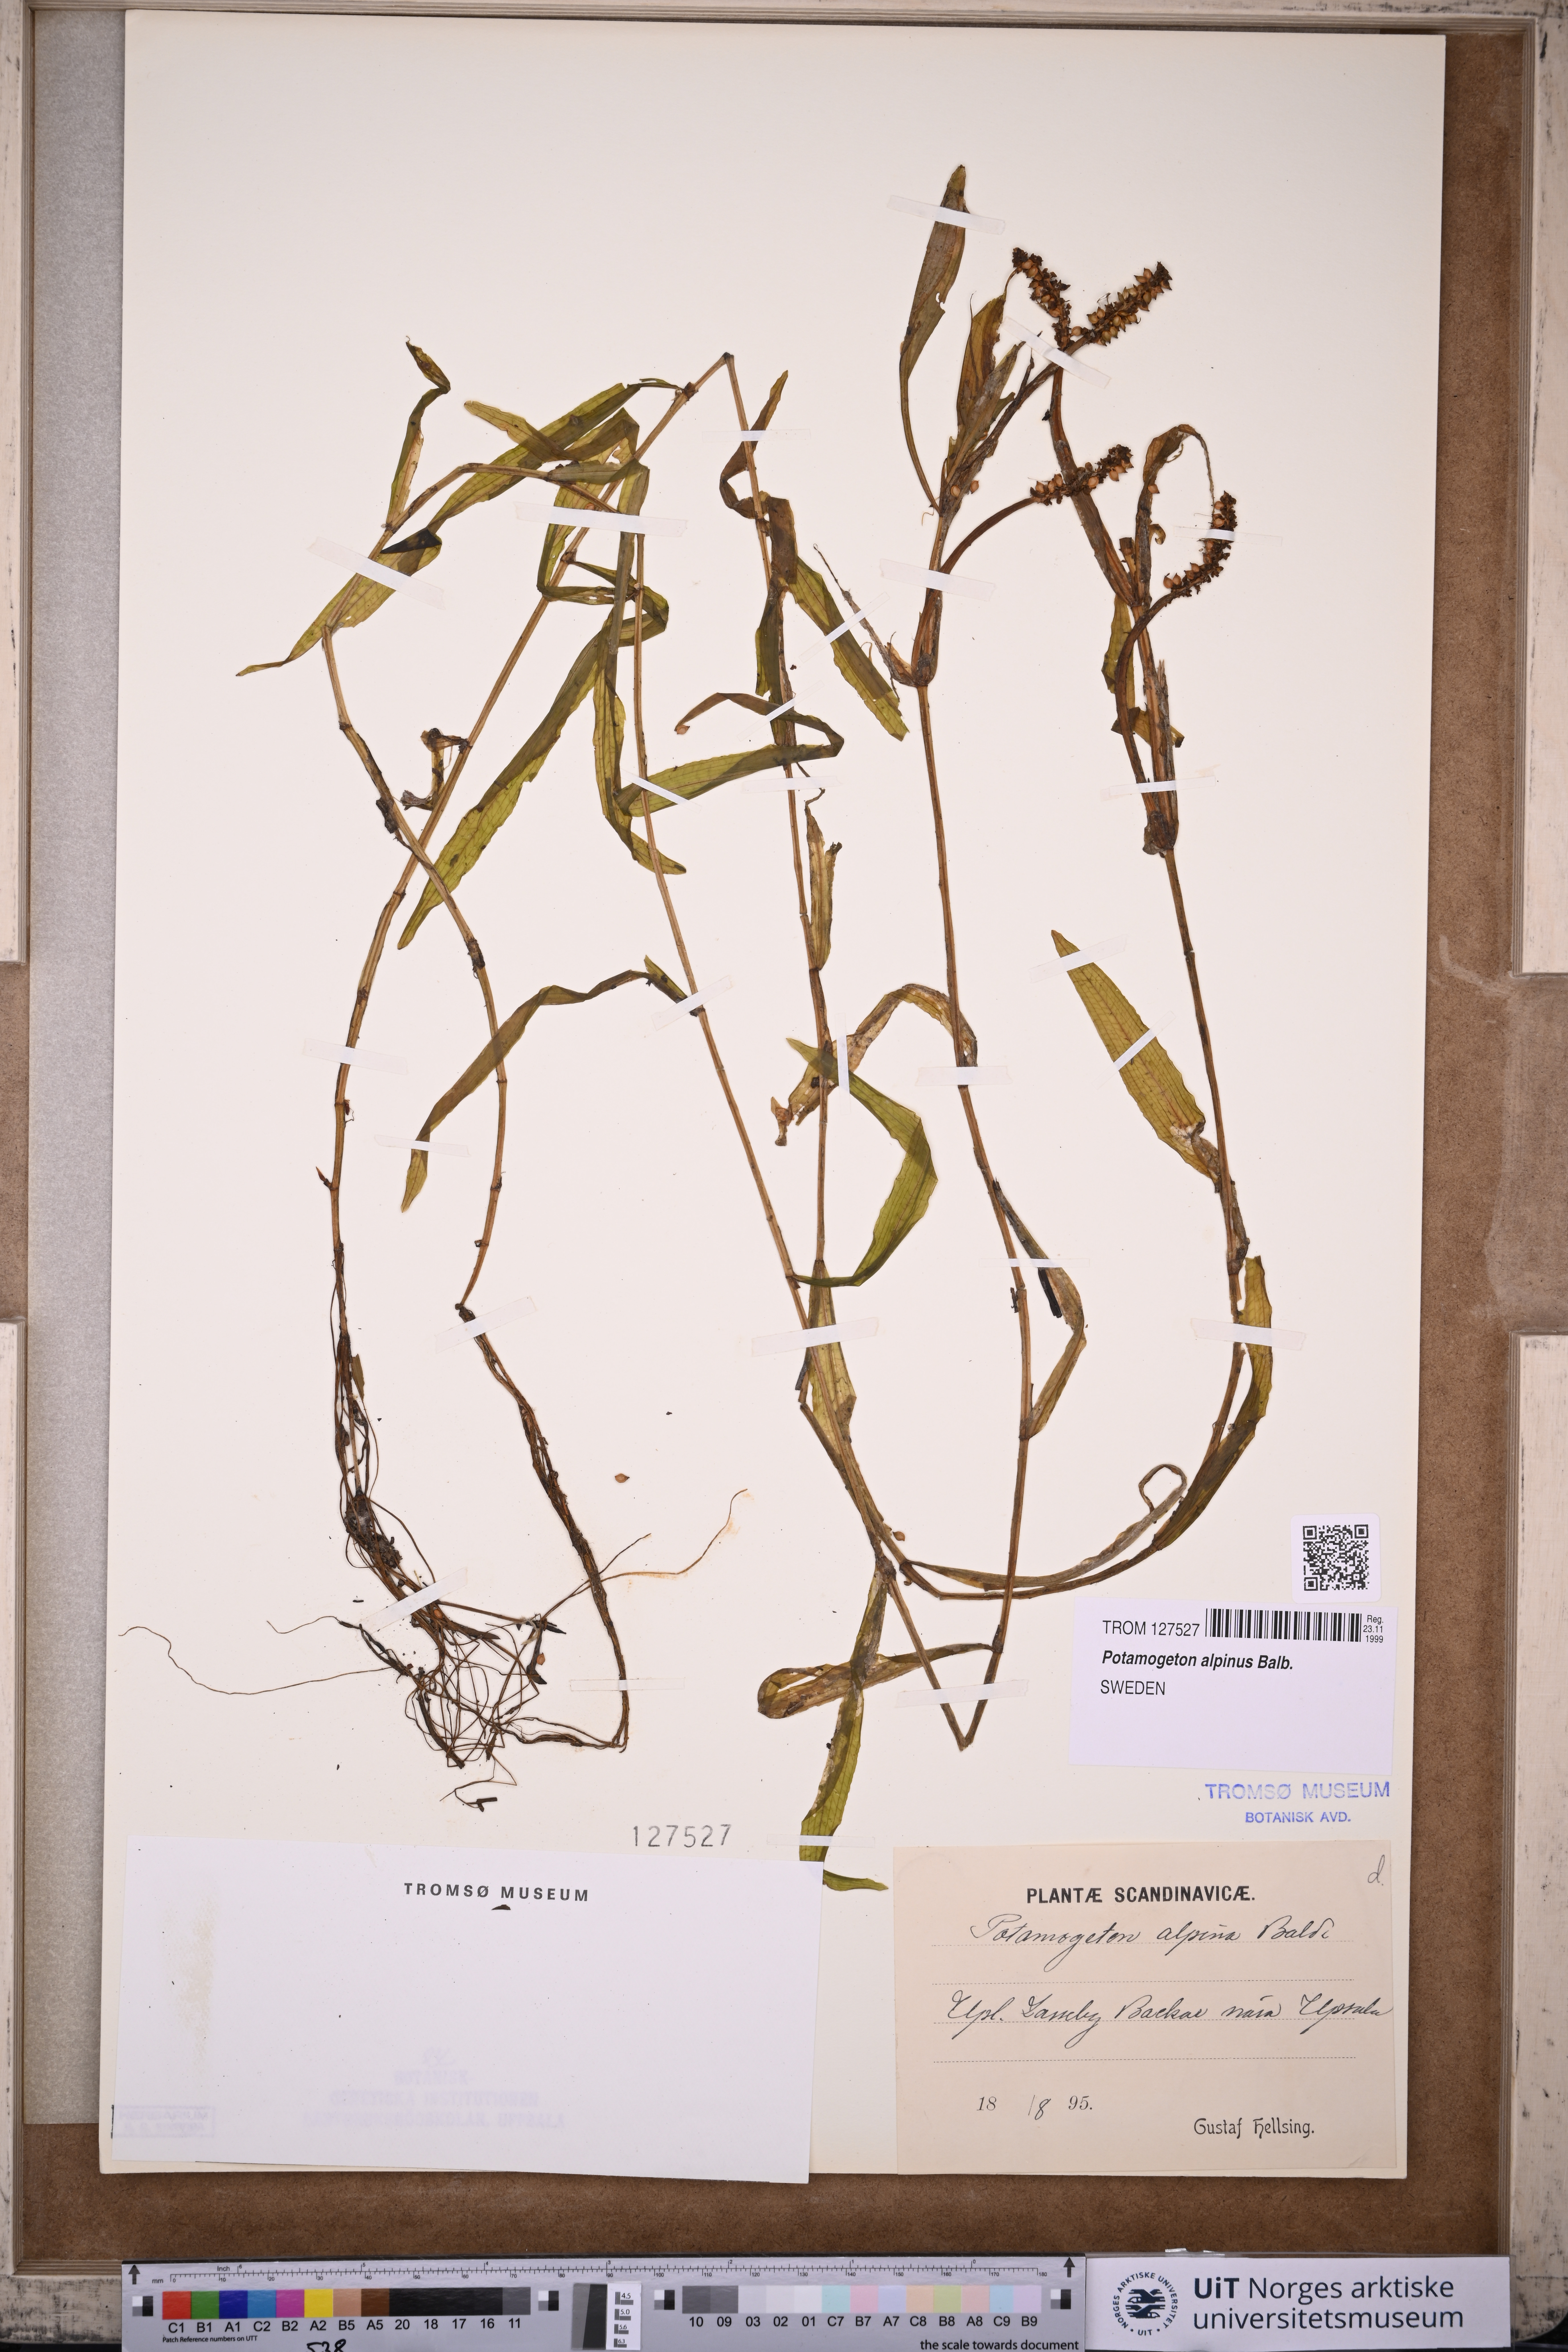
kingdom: Plantae
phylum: Tracheophyta
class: Liliopsida
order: Alismatales
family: Potamogetonaceae
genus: Potamogeton
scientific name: Potamogeton alpinus
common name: Red pondweed
